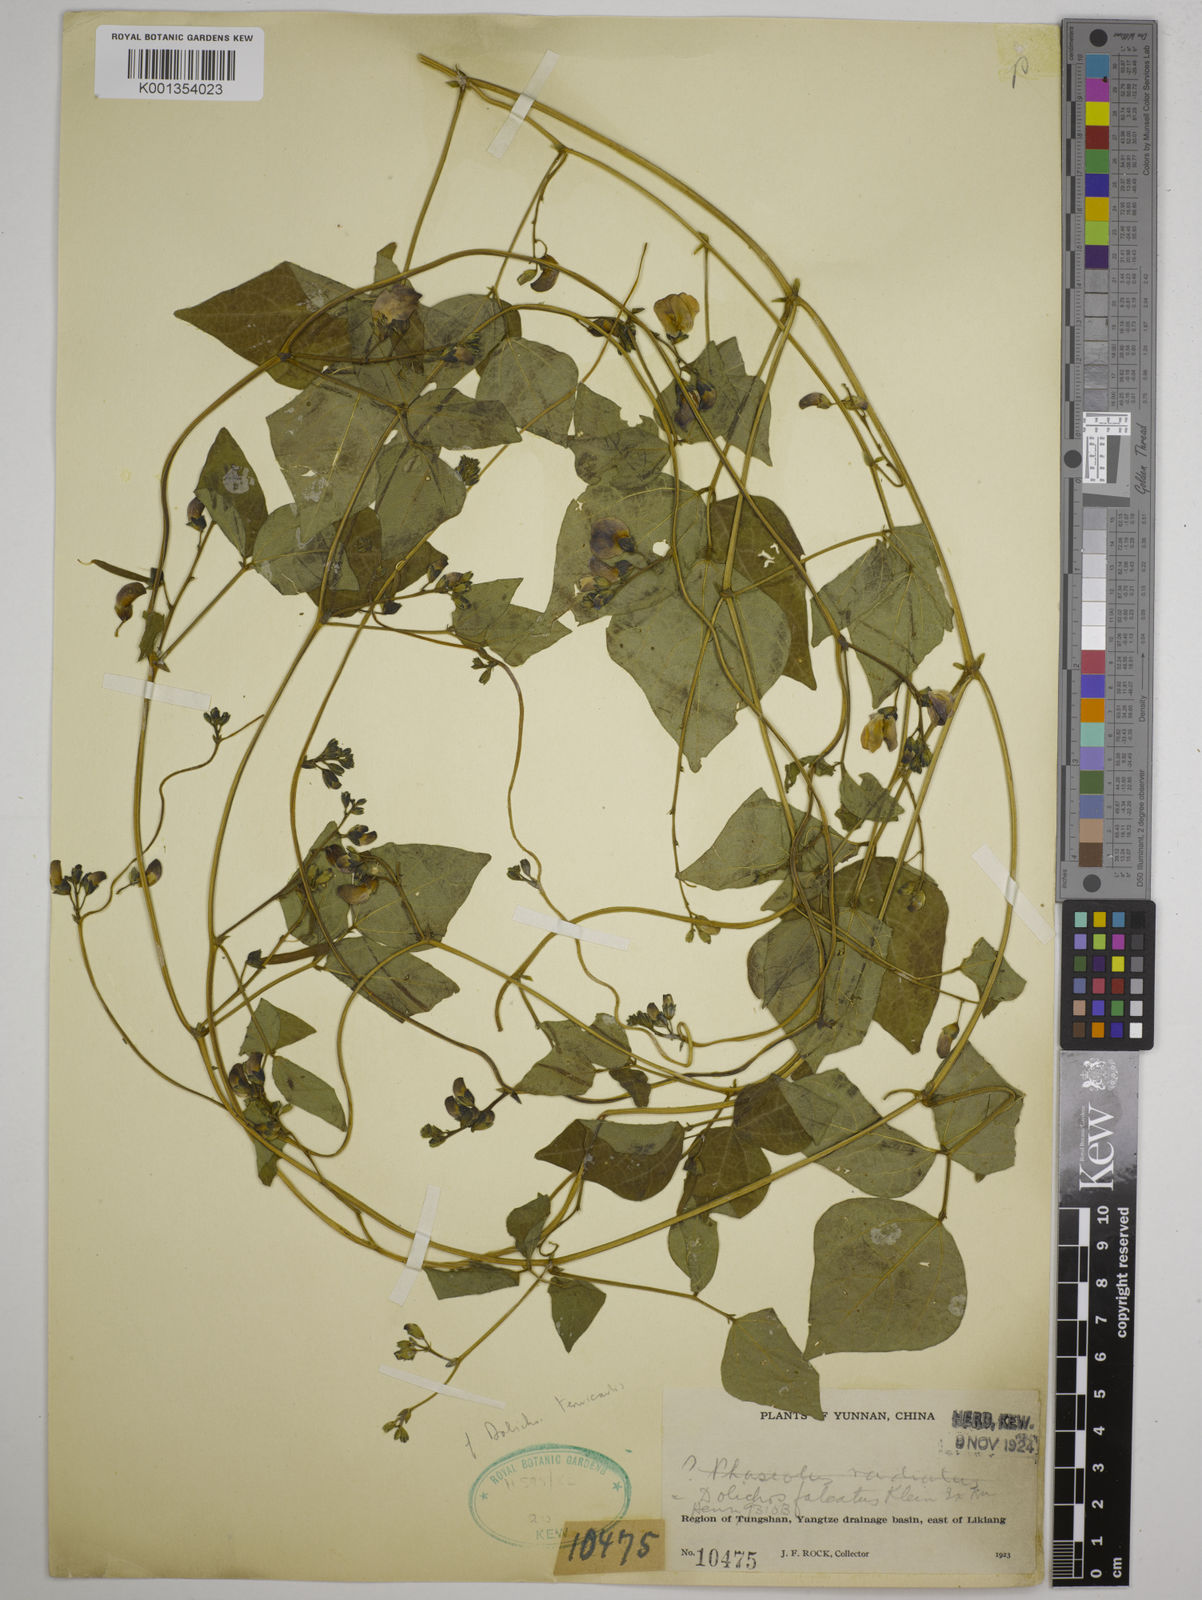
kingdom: Plantae
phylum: Tracheophyta
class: Magnoliopsida
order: Fabales
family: Fabaceae
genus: Dolichos
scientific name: Dolichos trilobus
